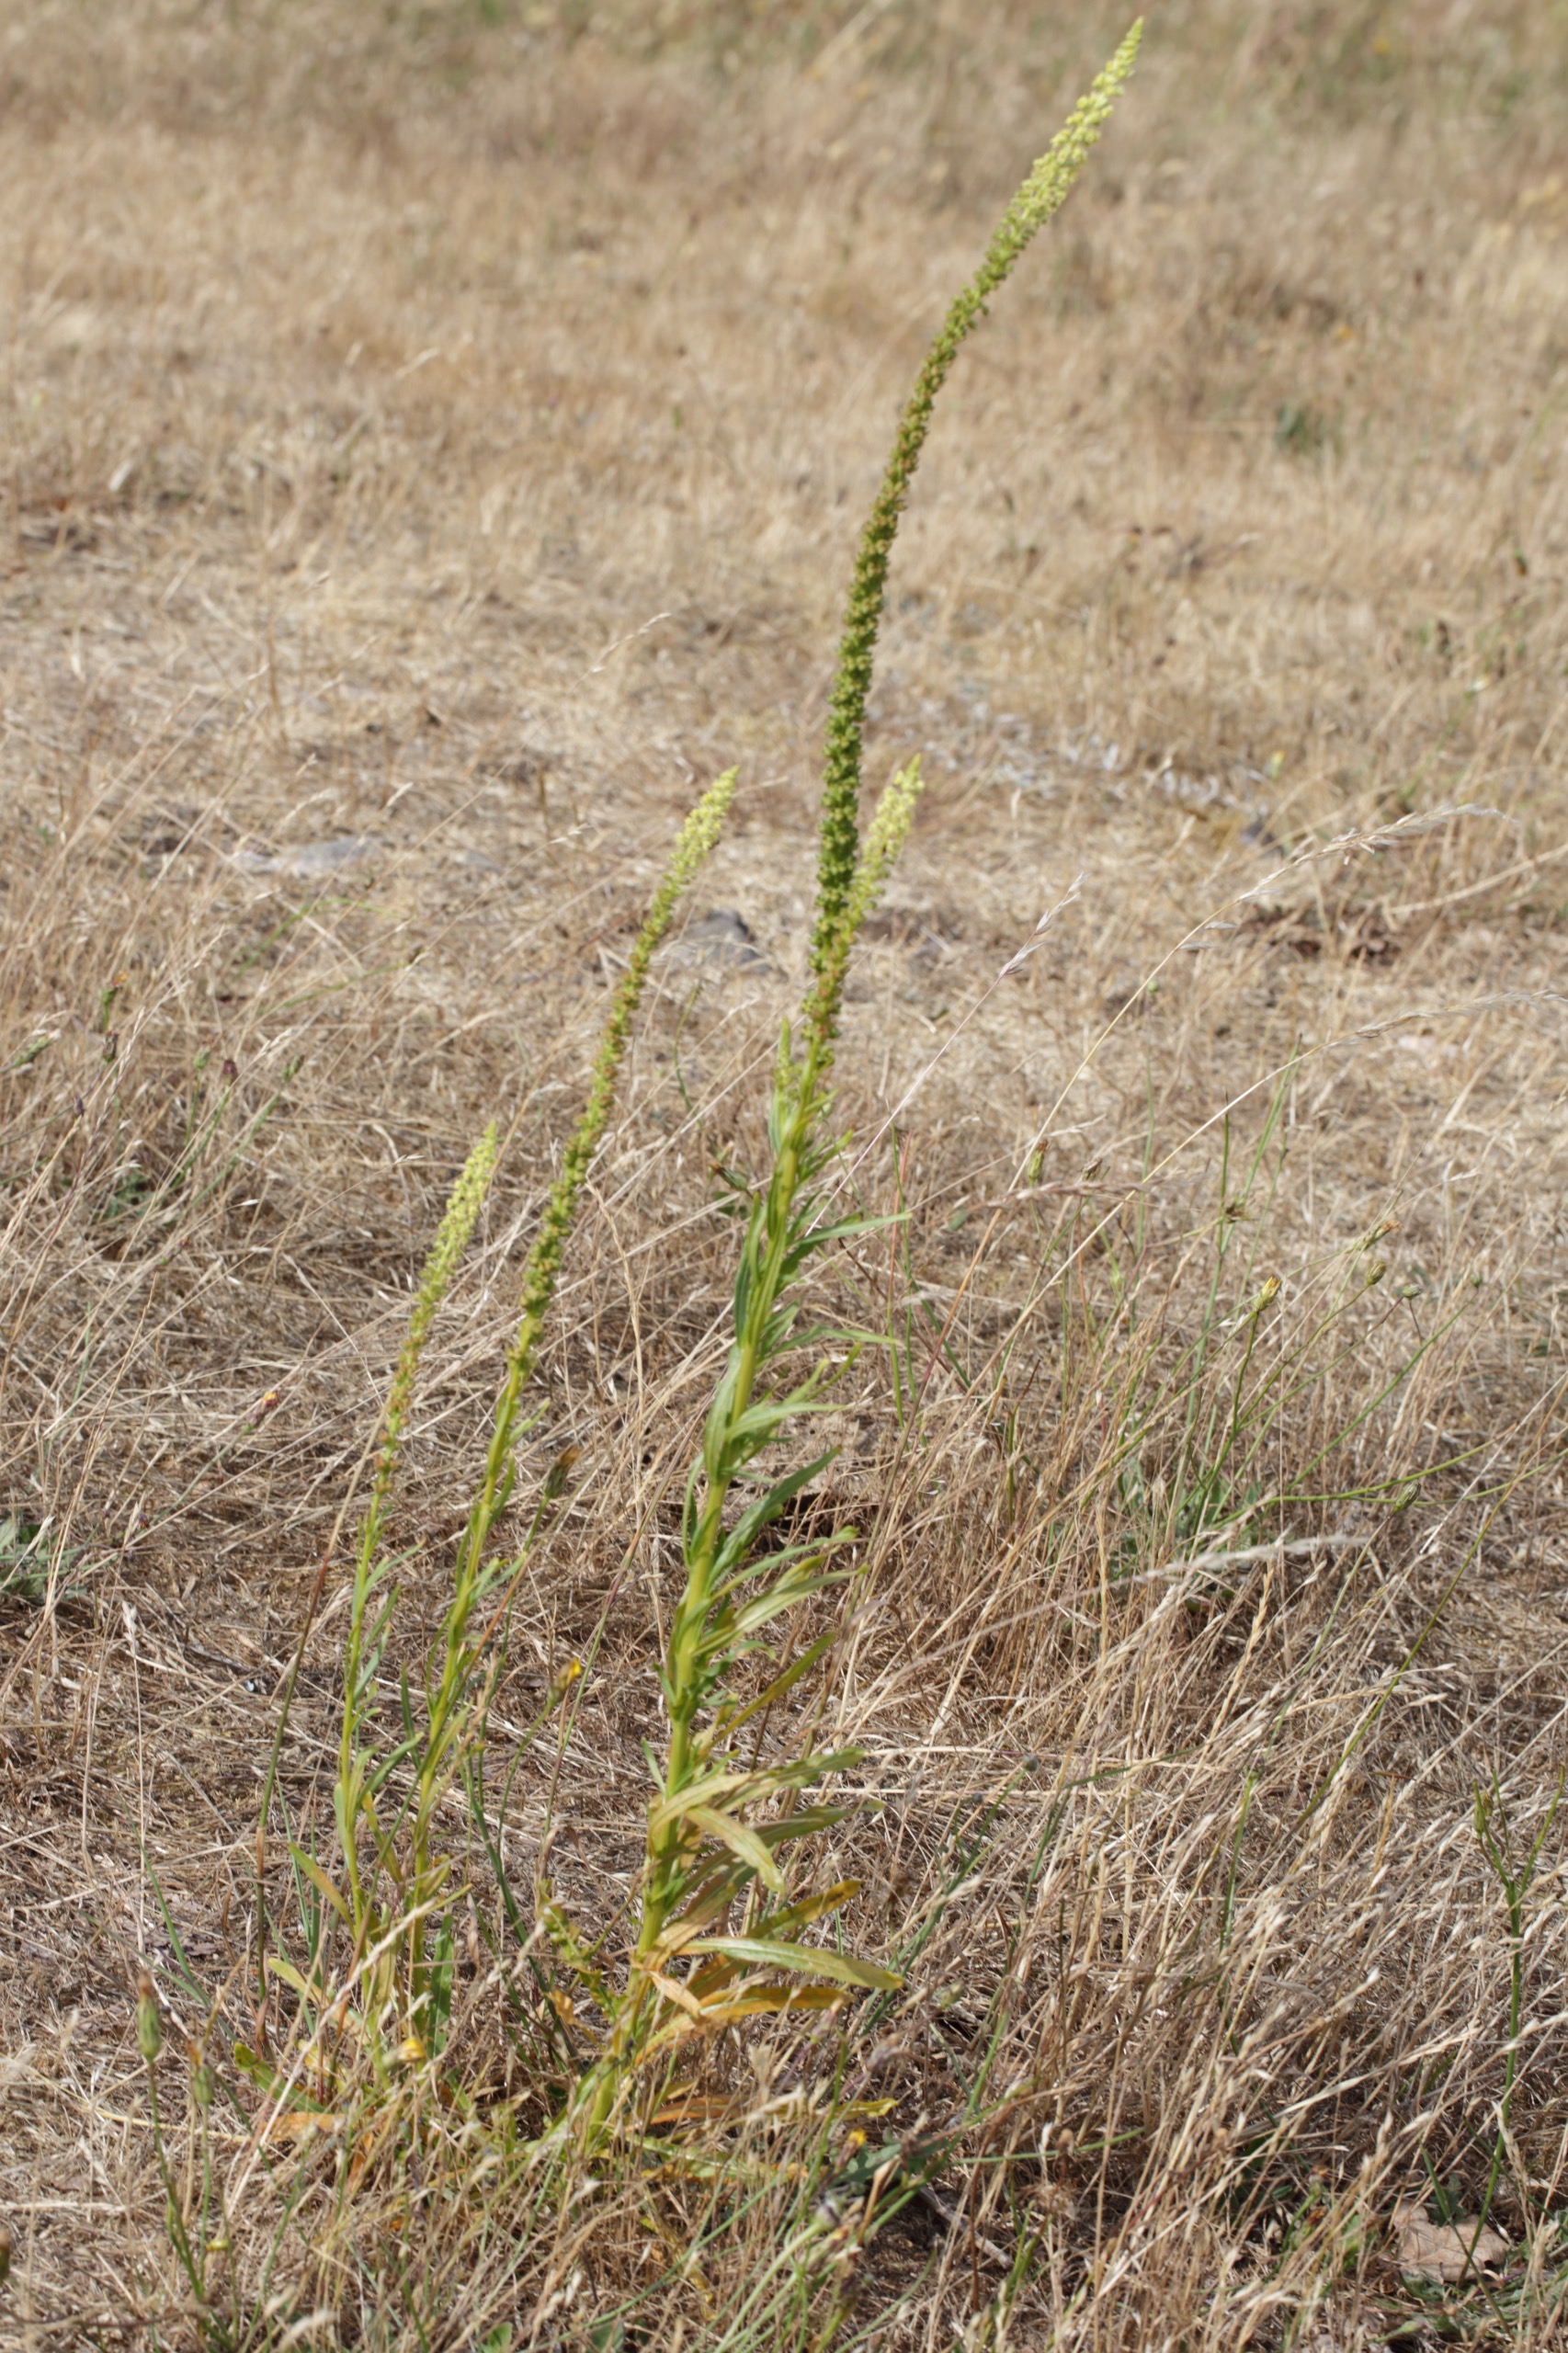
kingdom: Plantae
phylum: Tracheophyta
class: Magnoliopsida
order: Brassicales
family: Resedaceae
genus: Reseda
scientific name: Reseda luteola
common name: Farve-reseda
